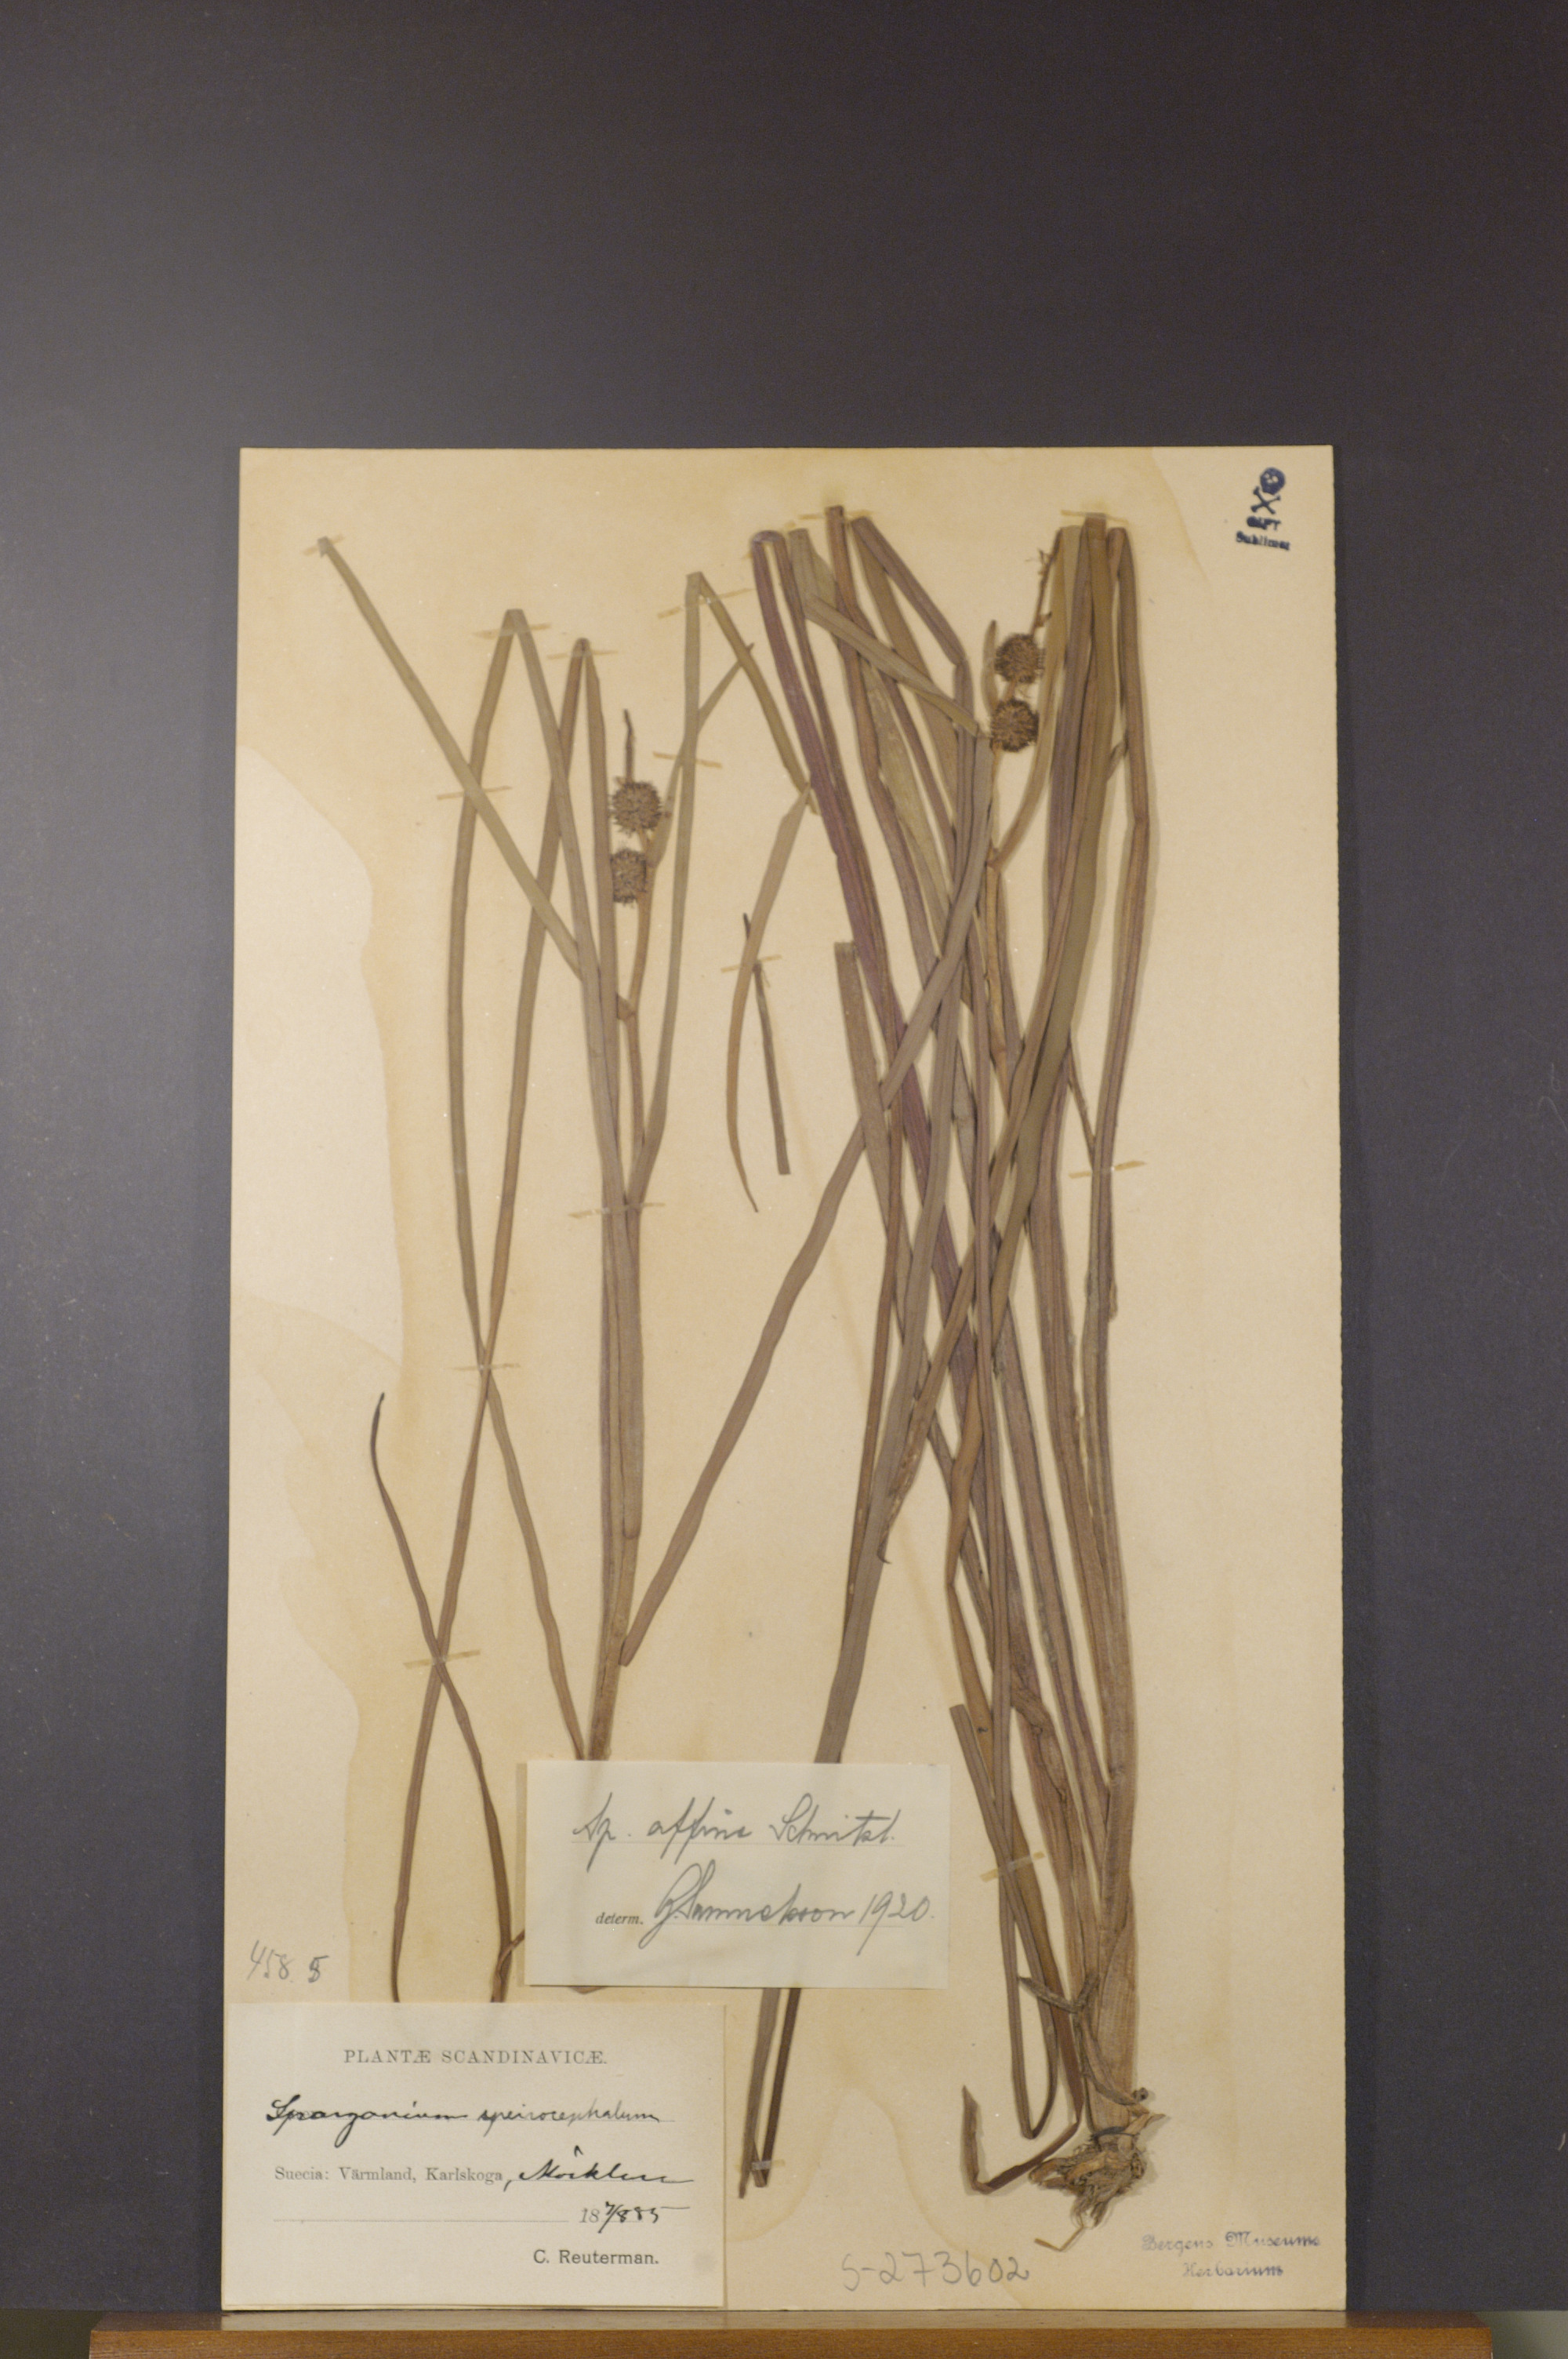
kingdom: Plantae
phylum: Tracheophyta
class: Liliopsida
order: Poales
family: Typhaceae
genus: Sparganium
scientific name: Sparganium angustifolium
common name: Floating bur-reed
